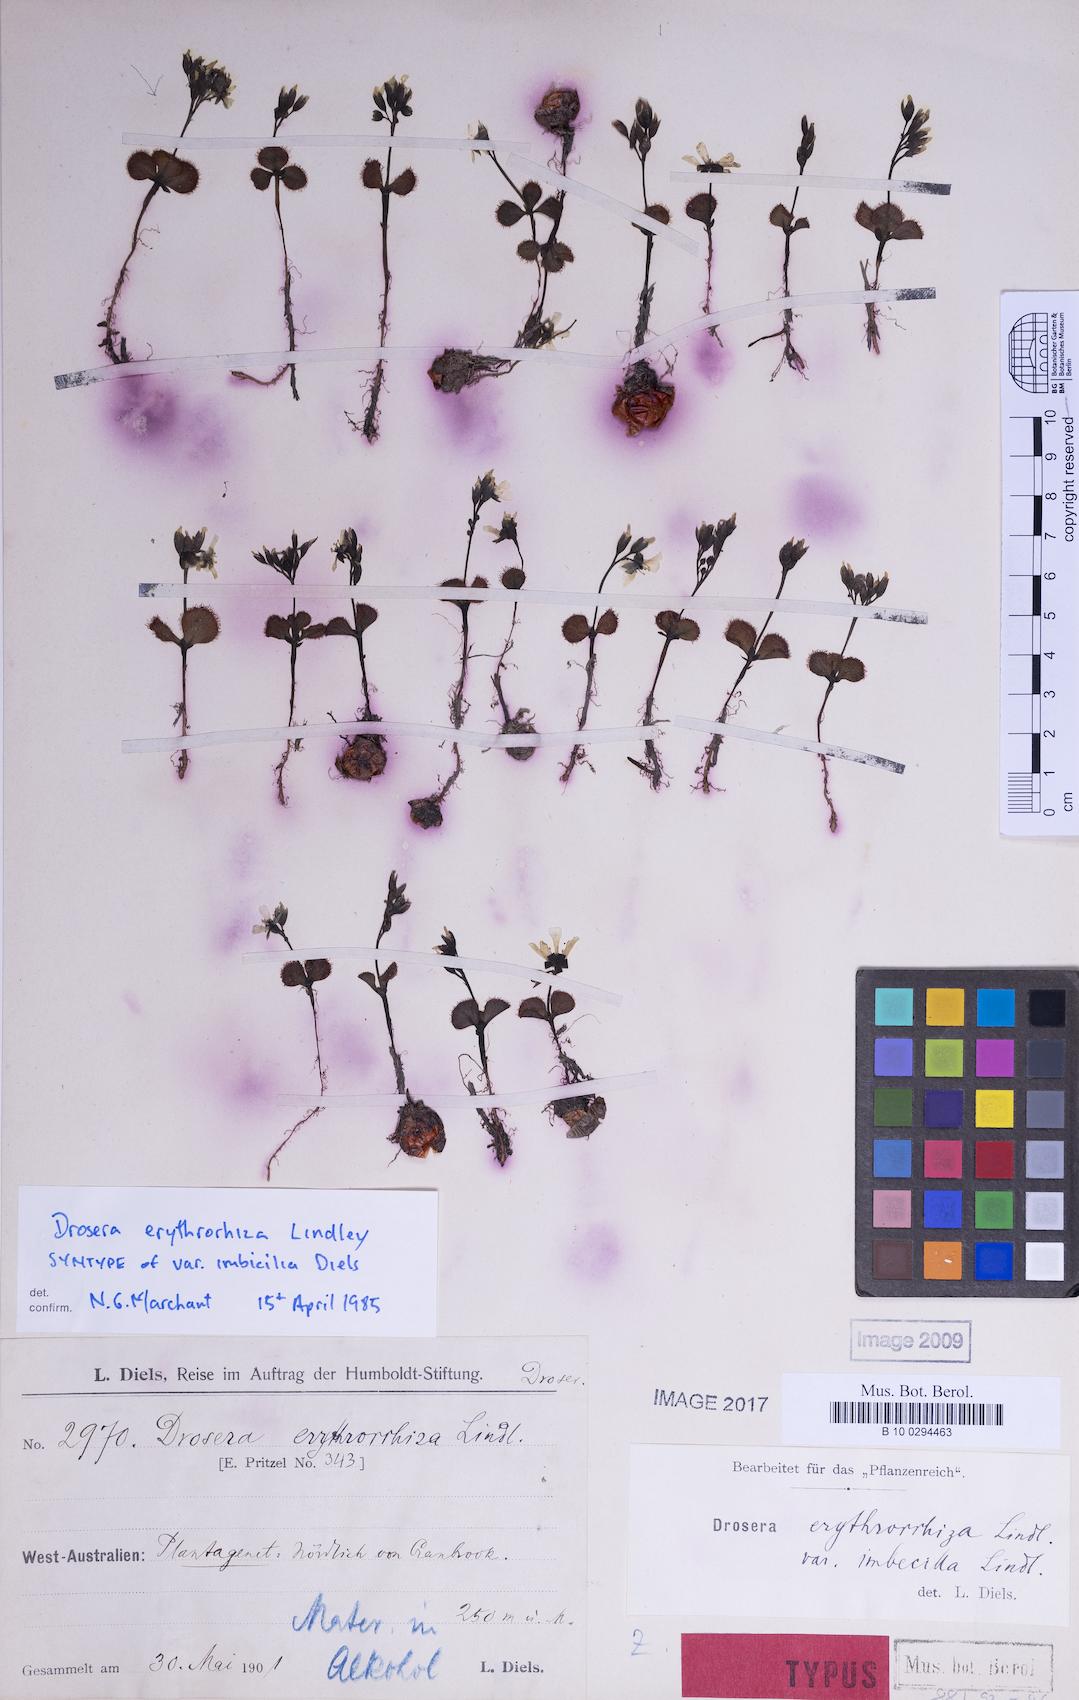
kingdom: Plantae
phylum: Tracheophyta
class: Magnoliopsida
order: Caryophyllales
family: Droseraceae
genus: Drosera
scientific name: Drosera erythrorhiza
